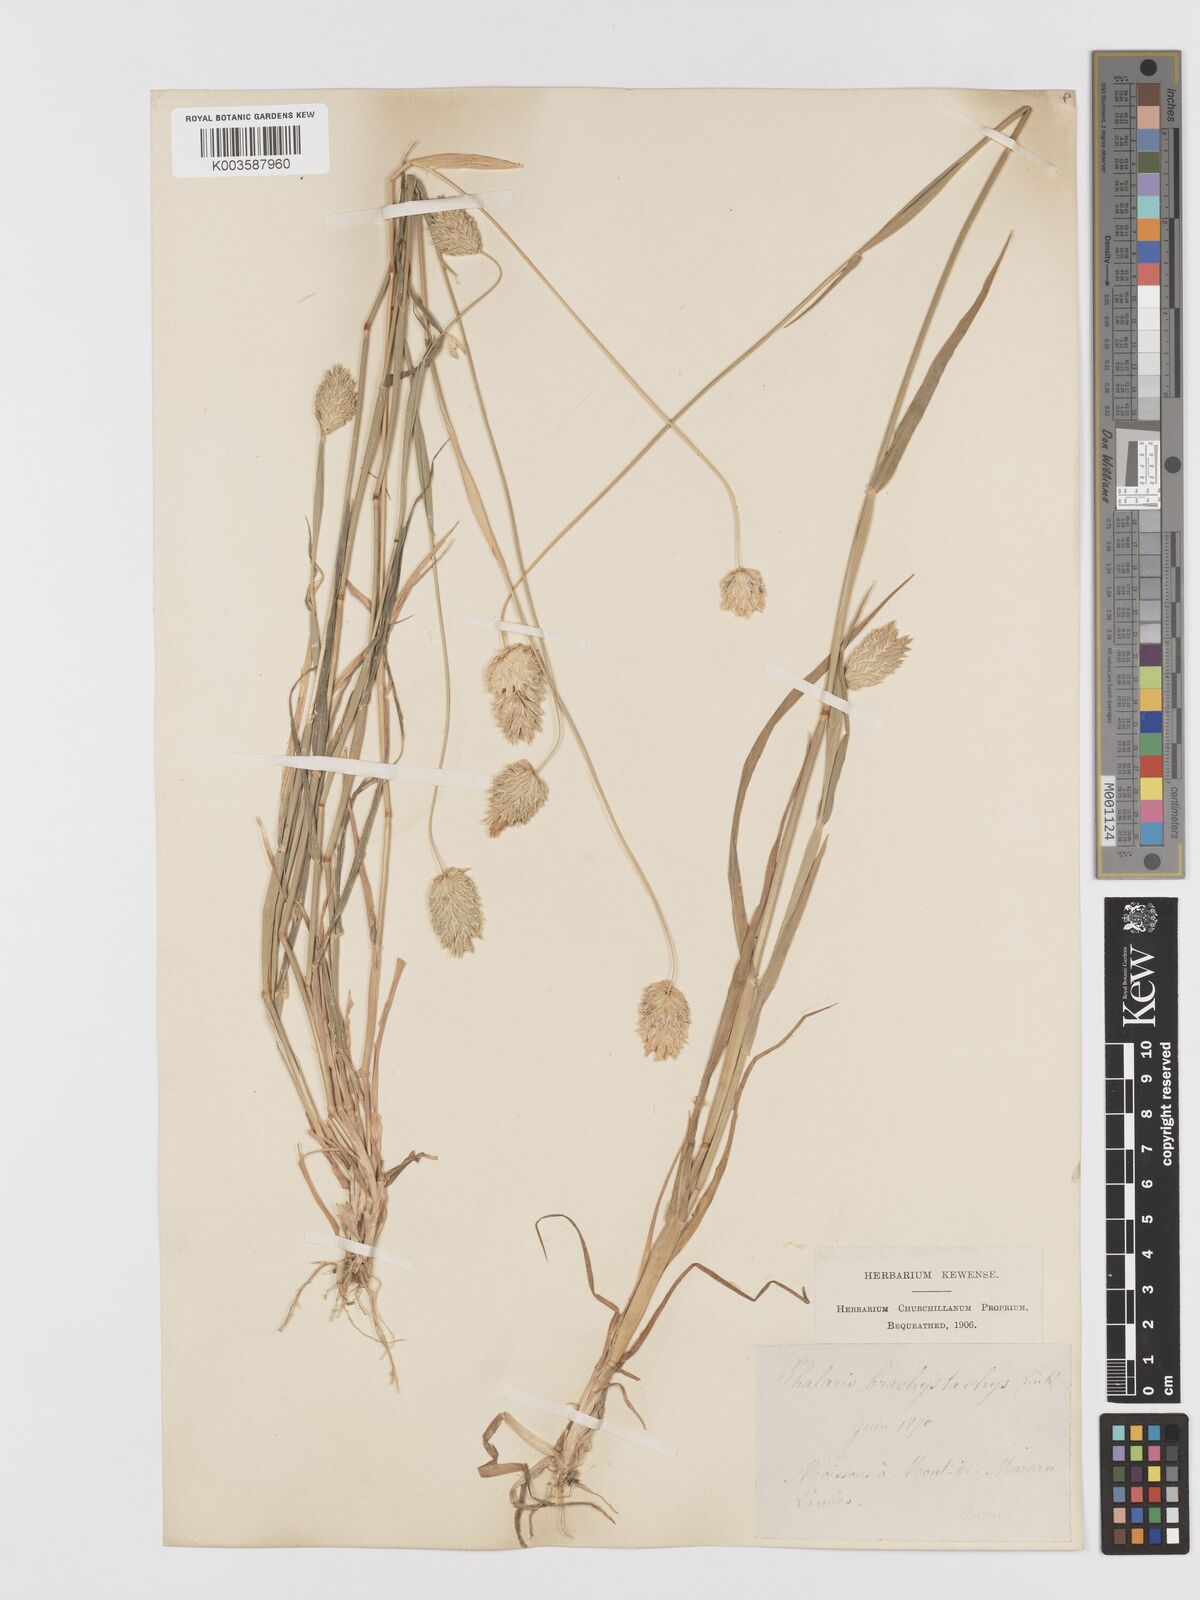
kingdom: Plantae
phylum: Tracheophyta
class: Liliopsida
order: Poales
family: Poaceae
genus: Phalaris
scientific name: Phalaris brachystachys
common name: Confused canary-grass
